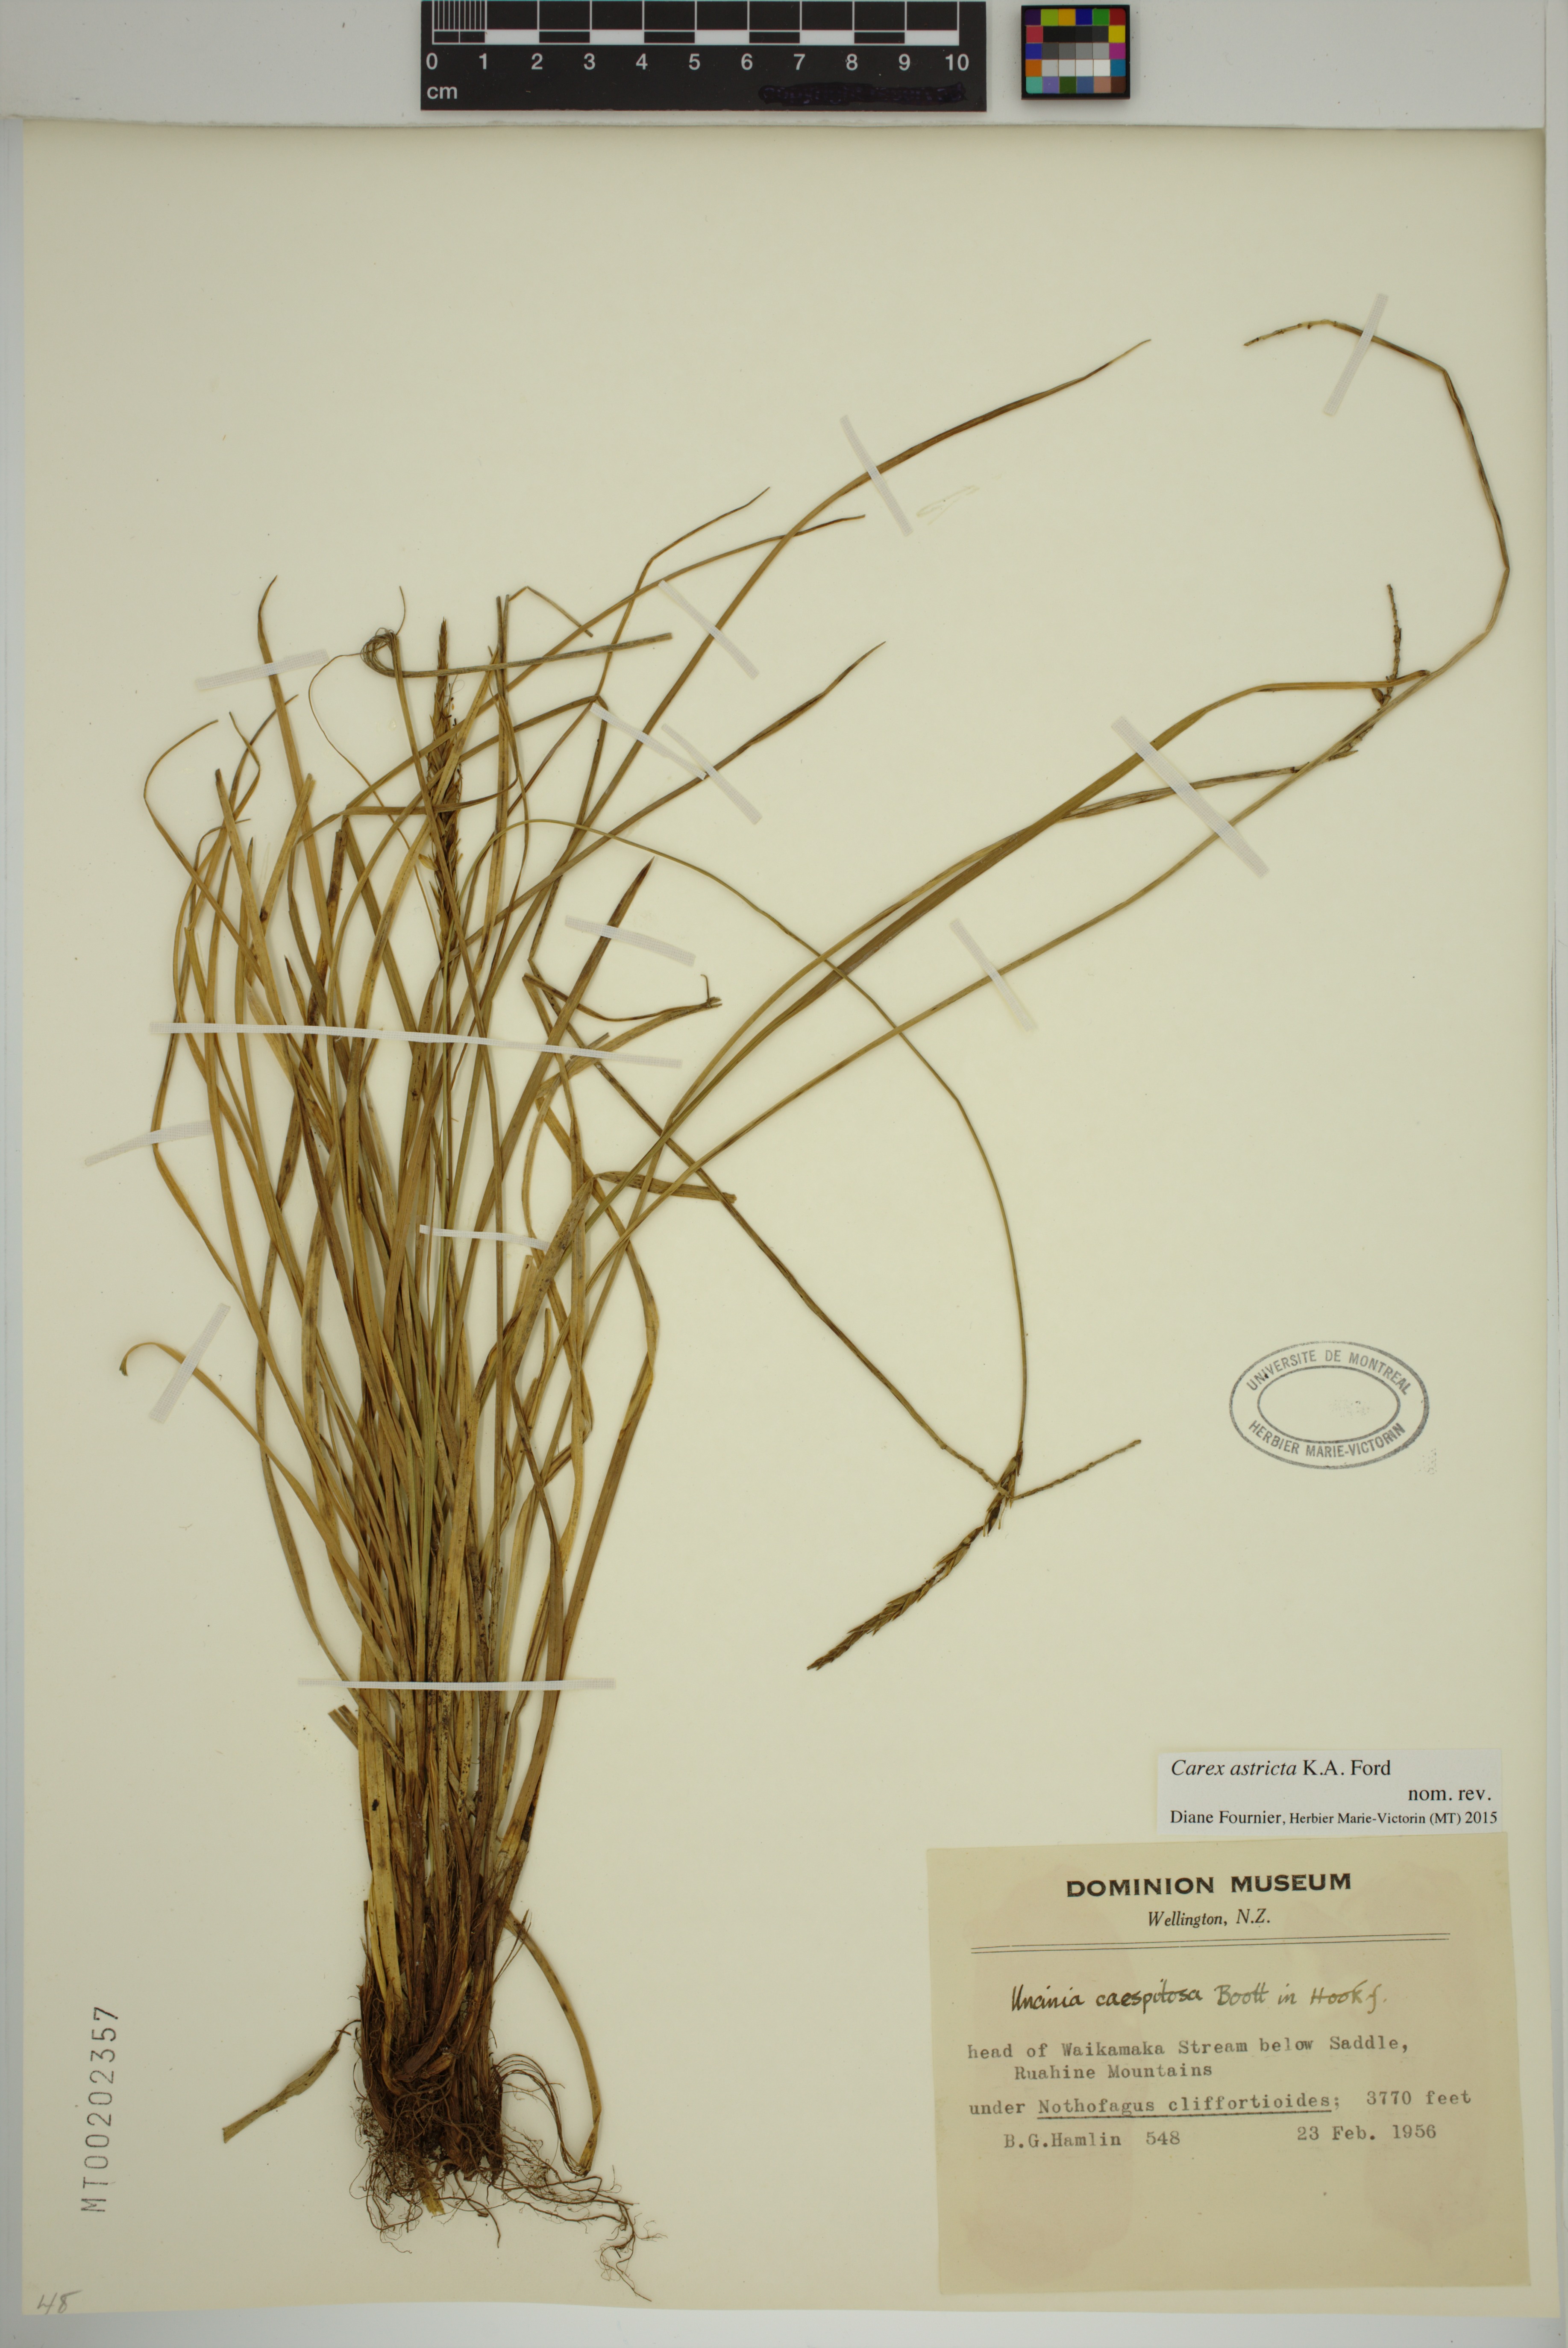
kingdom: Plantae
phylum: Tracheophyta
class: Liliopsida
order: Poales
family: Cyperaceae
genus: Carex
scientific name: Carex astricta
